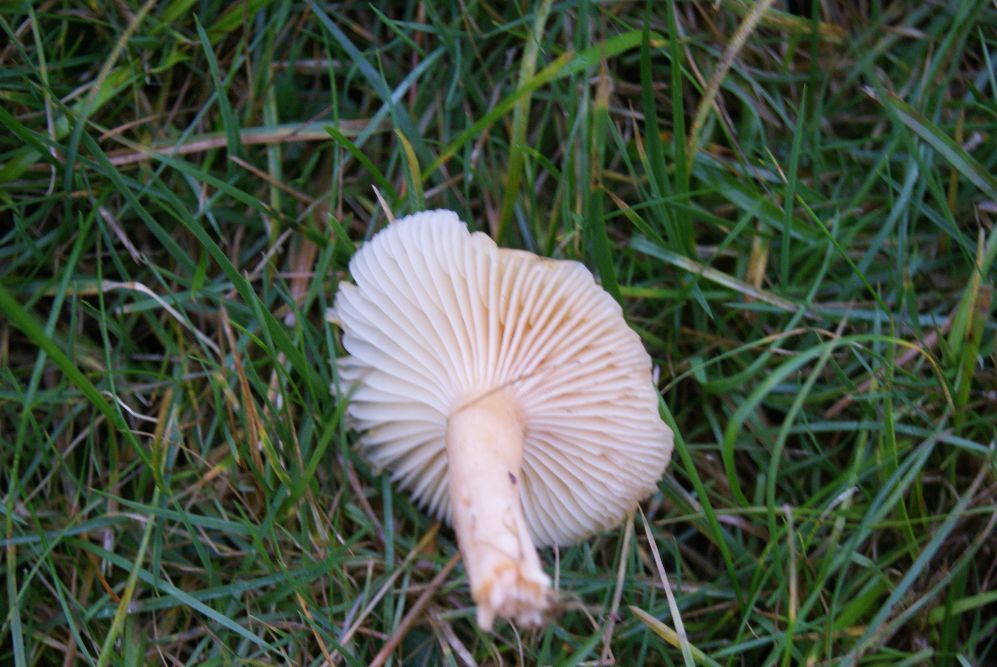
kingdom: Fungi
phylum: Basidiomycota
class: Agaricomycetes
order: Agaricales
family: Hygrophoraceae
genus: Cuphophyllus
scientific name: Cuphophyllus pratensis
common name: eng-vokshat
